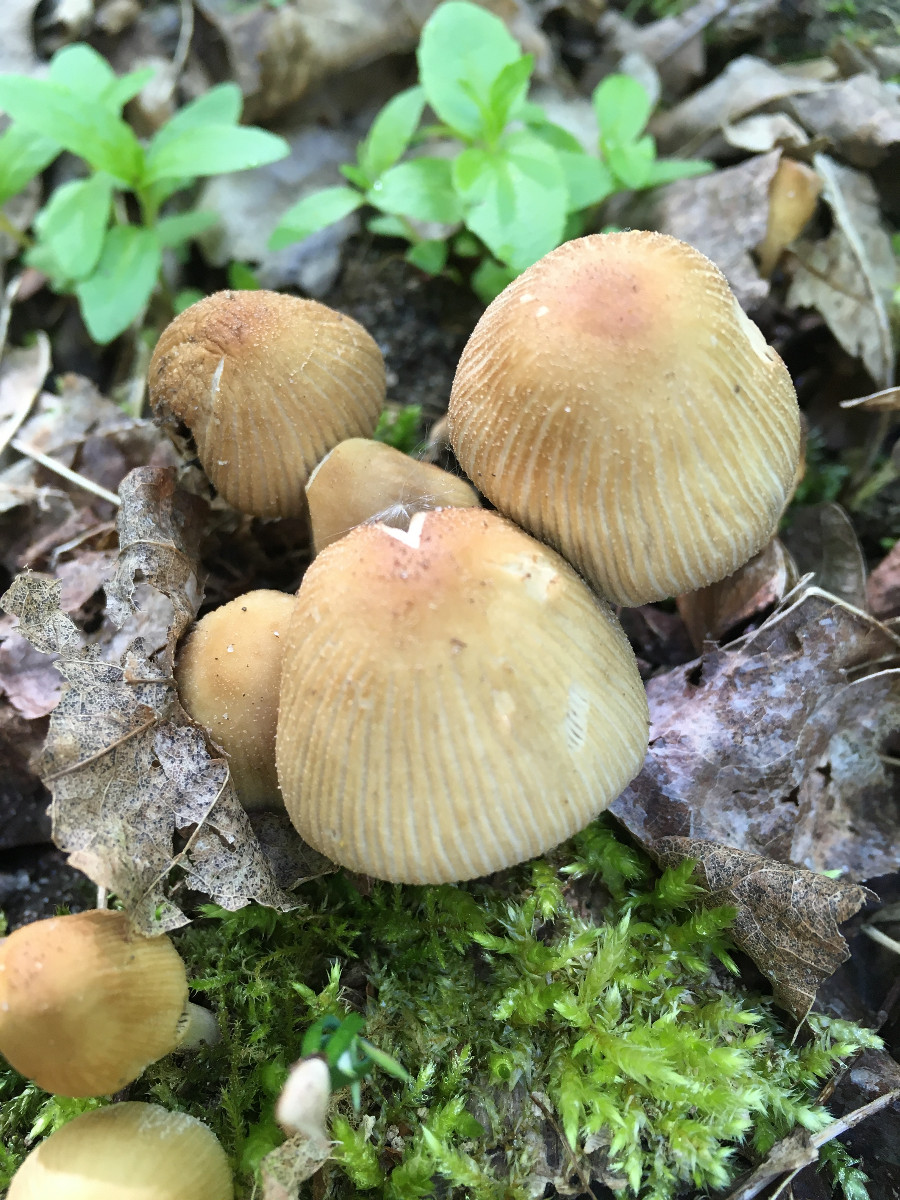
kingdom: Fungi
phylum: Basidiomycota
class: Agaricomycetes
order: Agaricales
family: Psathyrellaceae
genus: Coprinellus
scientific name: Coprinellus micaceus
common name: glimmer-blækhat
